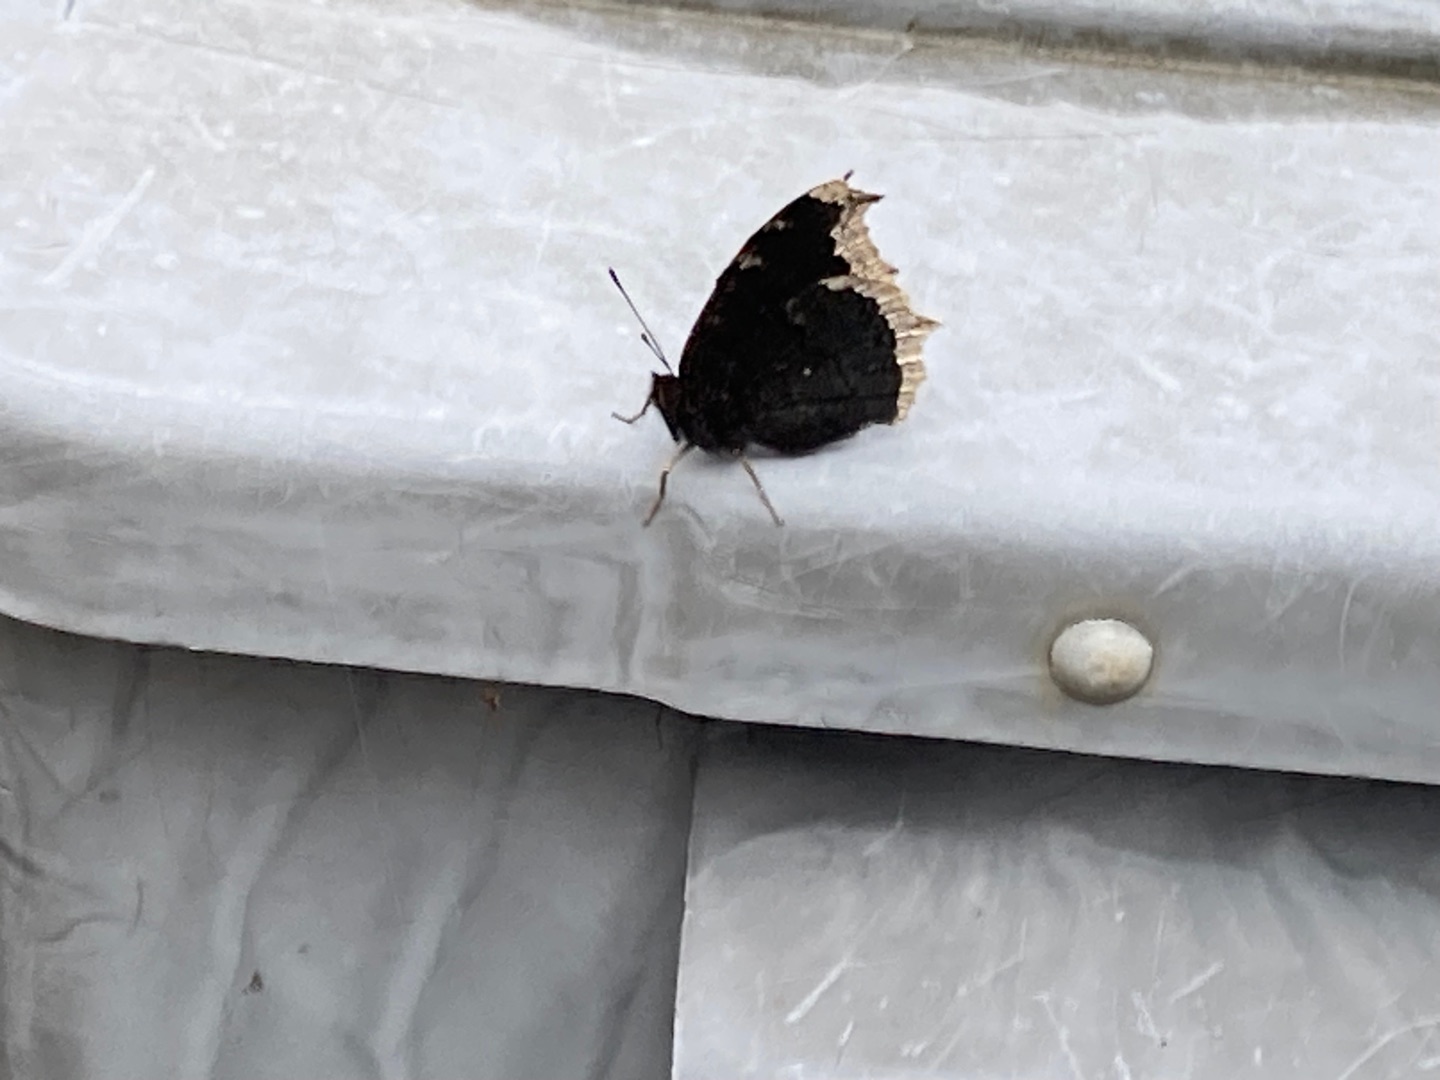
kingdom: Animalia
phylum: Arthropoda
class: Insecta
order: Lepidoptera
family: Nymphalidae
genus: Nymphalis
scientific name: Nymphalis antiopa
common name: Sørgekåbe
